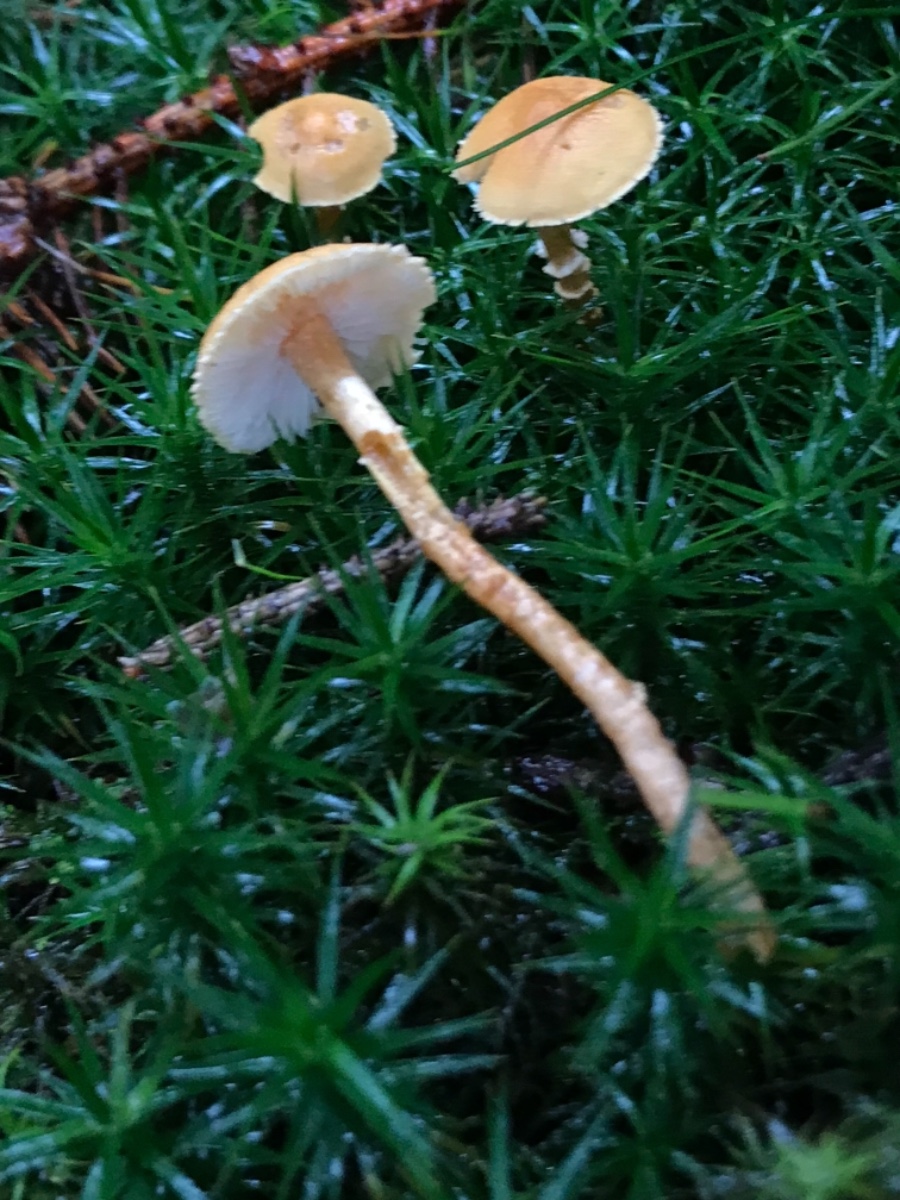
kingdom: Fungi
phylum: Basidiomycota
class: Agaricomycetes
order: Agaricales
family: Tricholomataceae
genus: Cystoderma
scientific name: Cystoderma amianthinum
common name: okkergul grynhat
